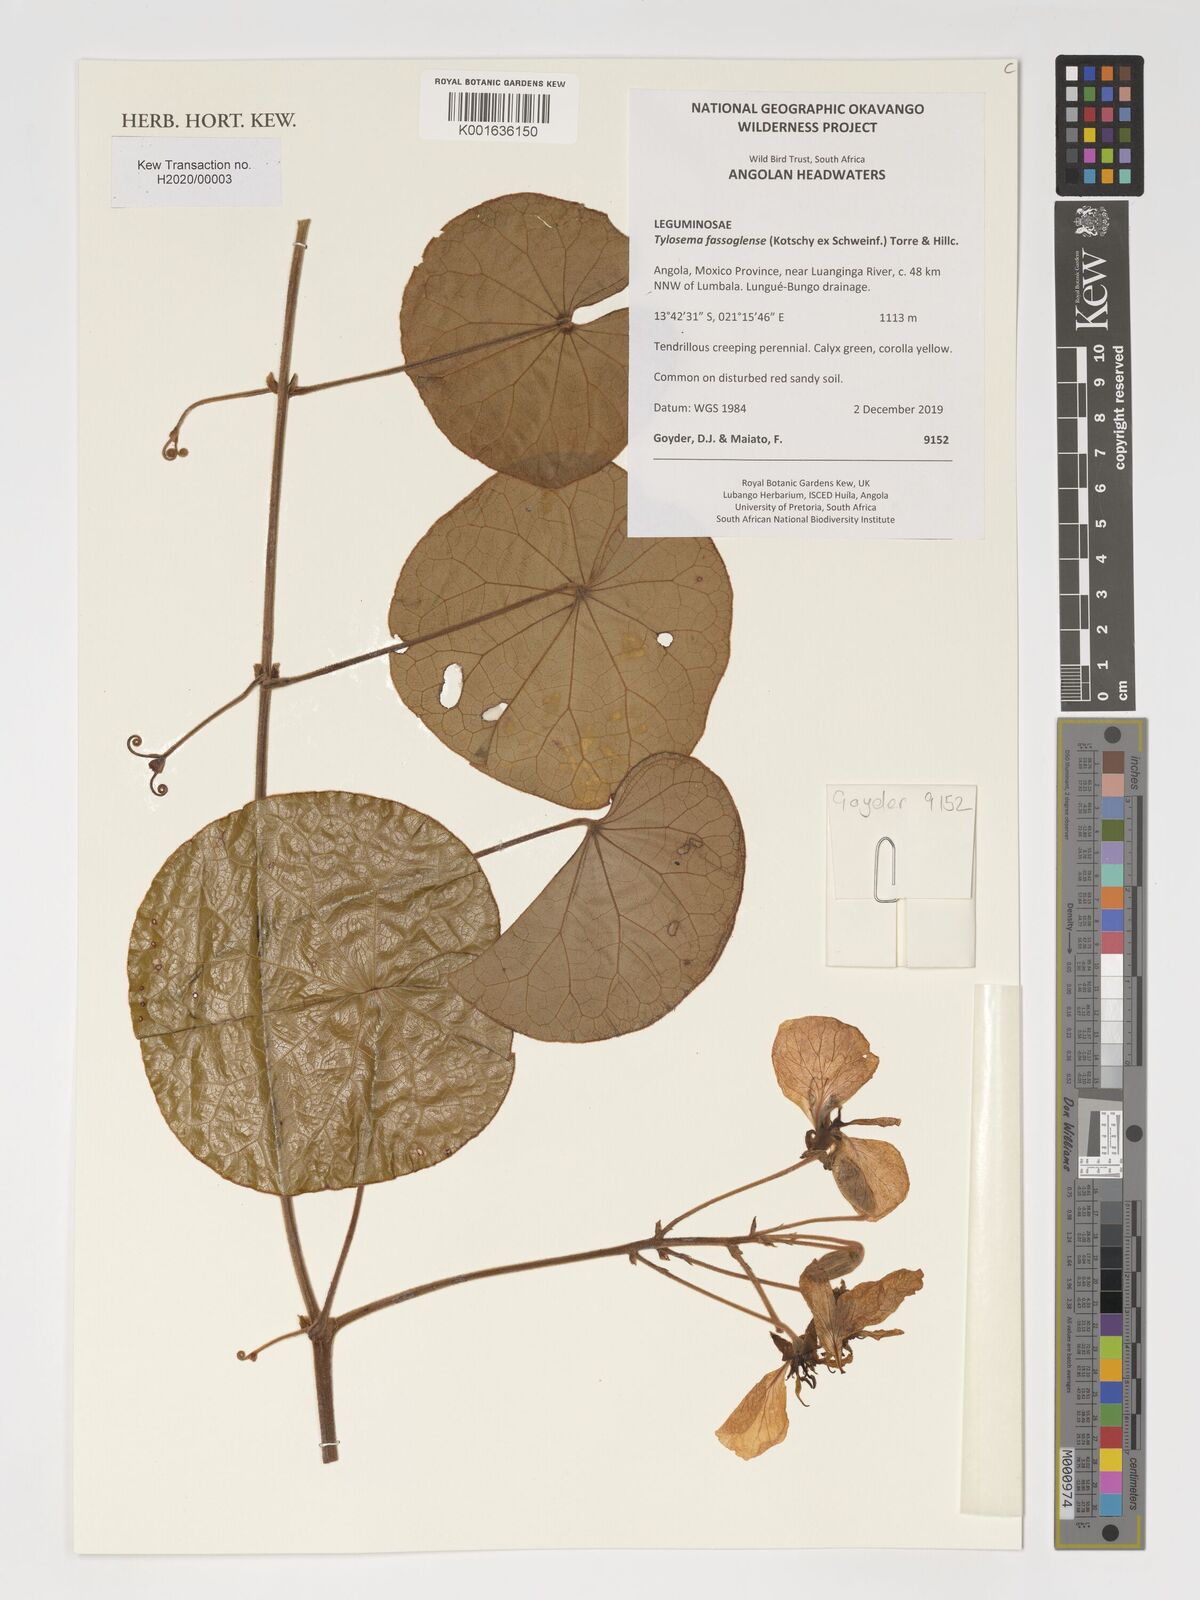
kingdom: Plantae
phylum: Tracheophyta
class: Magnoliopsida
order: Fabales
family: Fabaceae
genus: Tylosema
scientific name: Tylosema fassoglense
